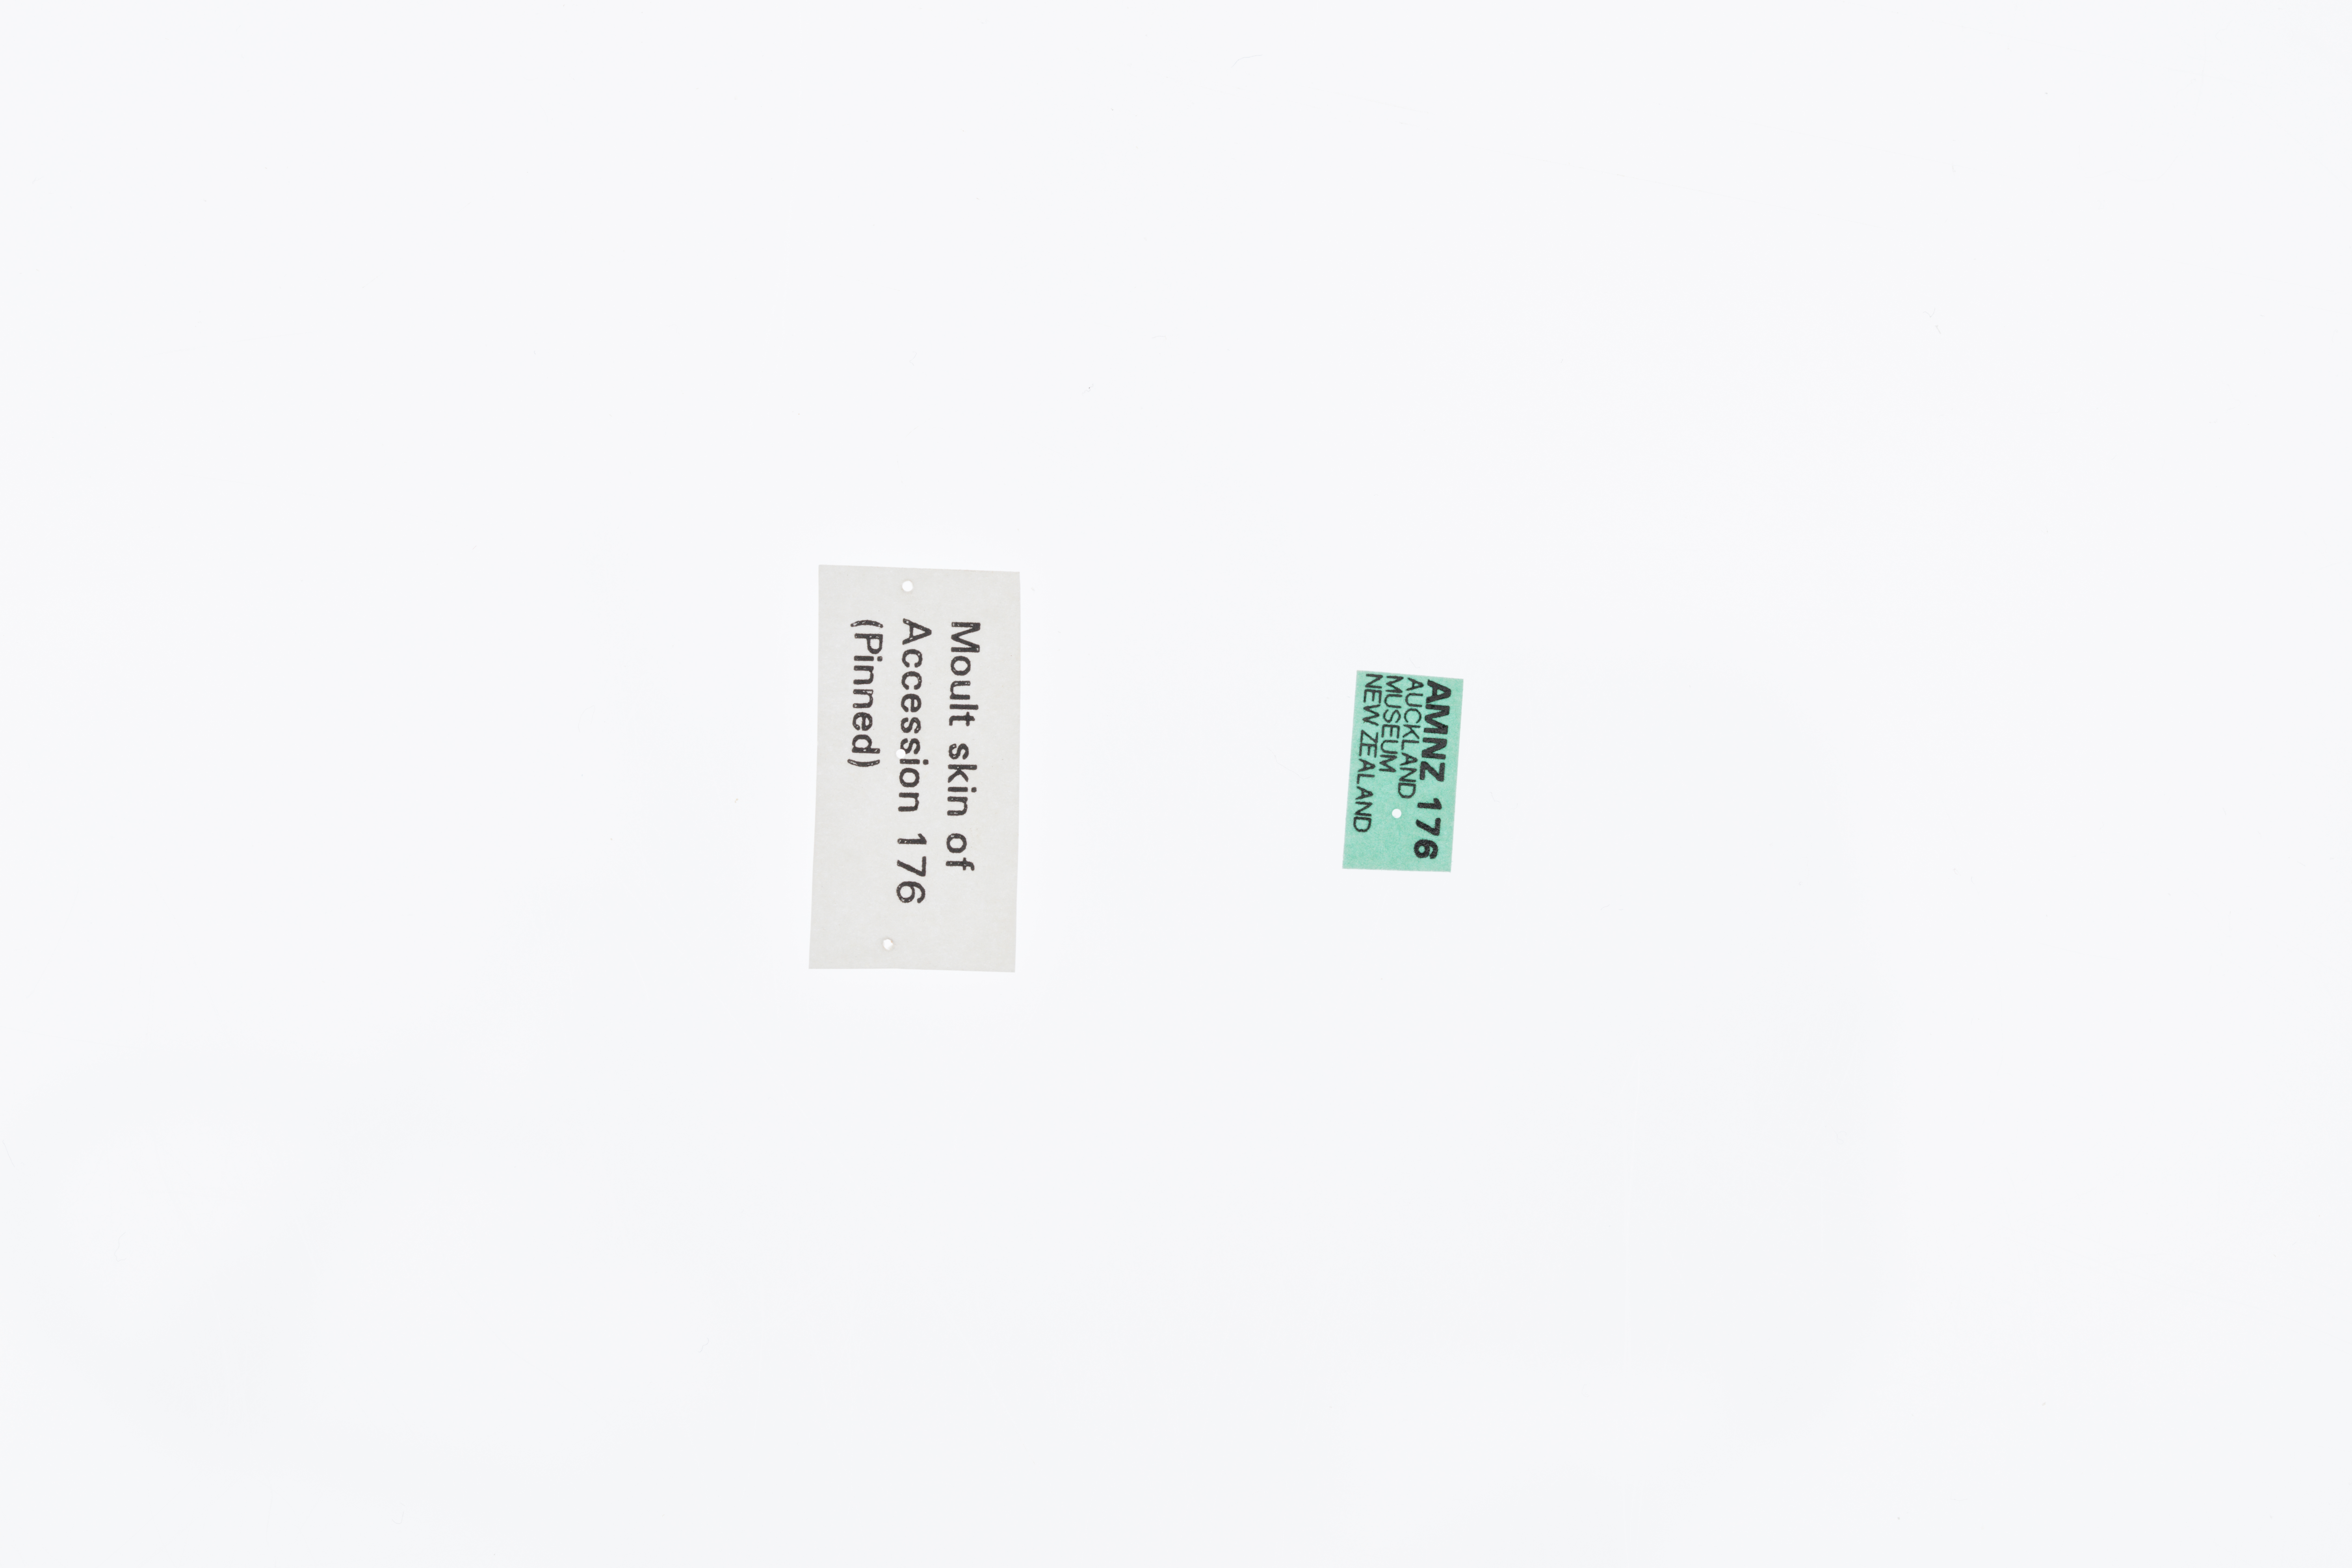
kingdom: Animalia
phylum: Arthropoda
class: Insecta
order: Orthoptera
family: Anostostomatidae
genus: Deinacrida
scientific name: Deinacrida fallai
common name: Poor knights weta
